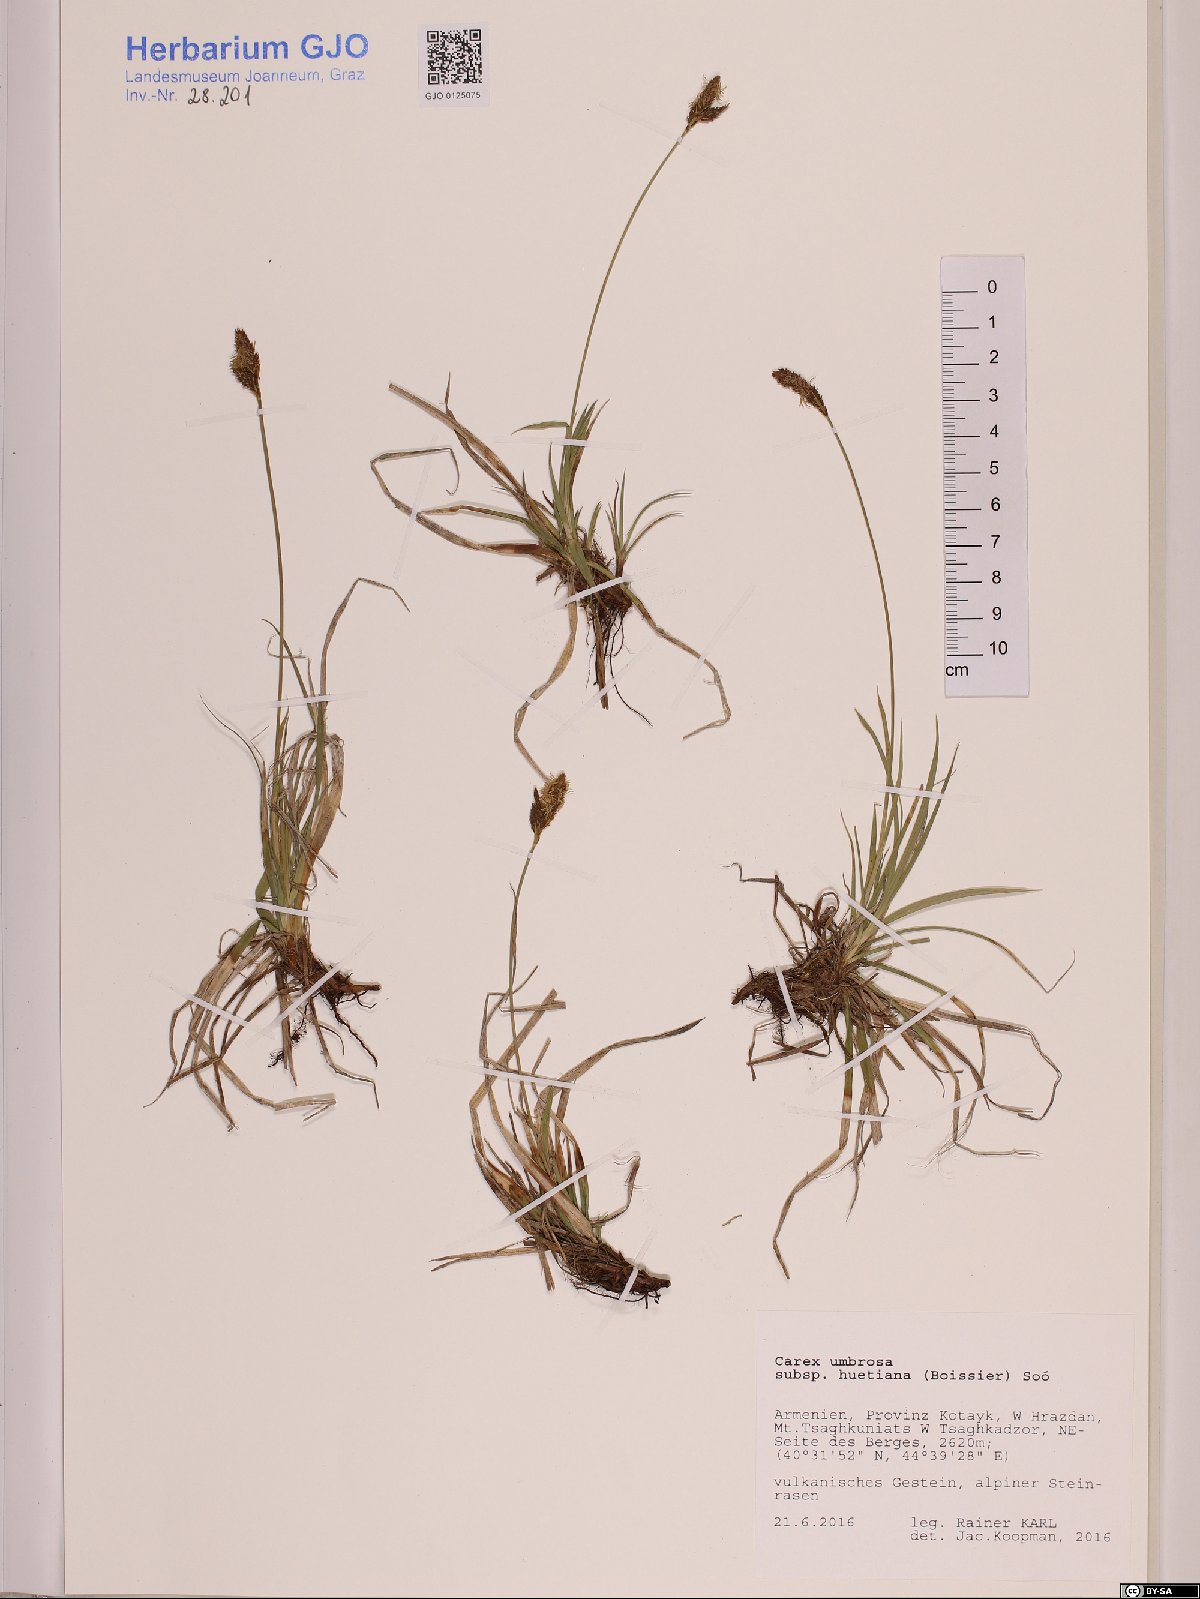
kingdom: Plantae
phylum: Tracheophyta
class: Liliopsida
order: Poales
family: Cyperaceae
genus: Carex
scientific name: Carex umbrosa
